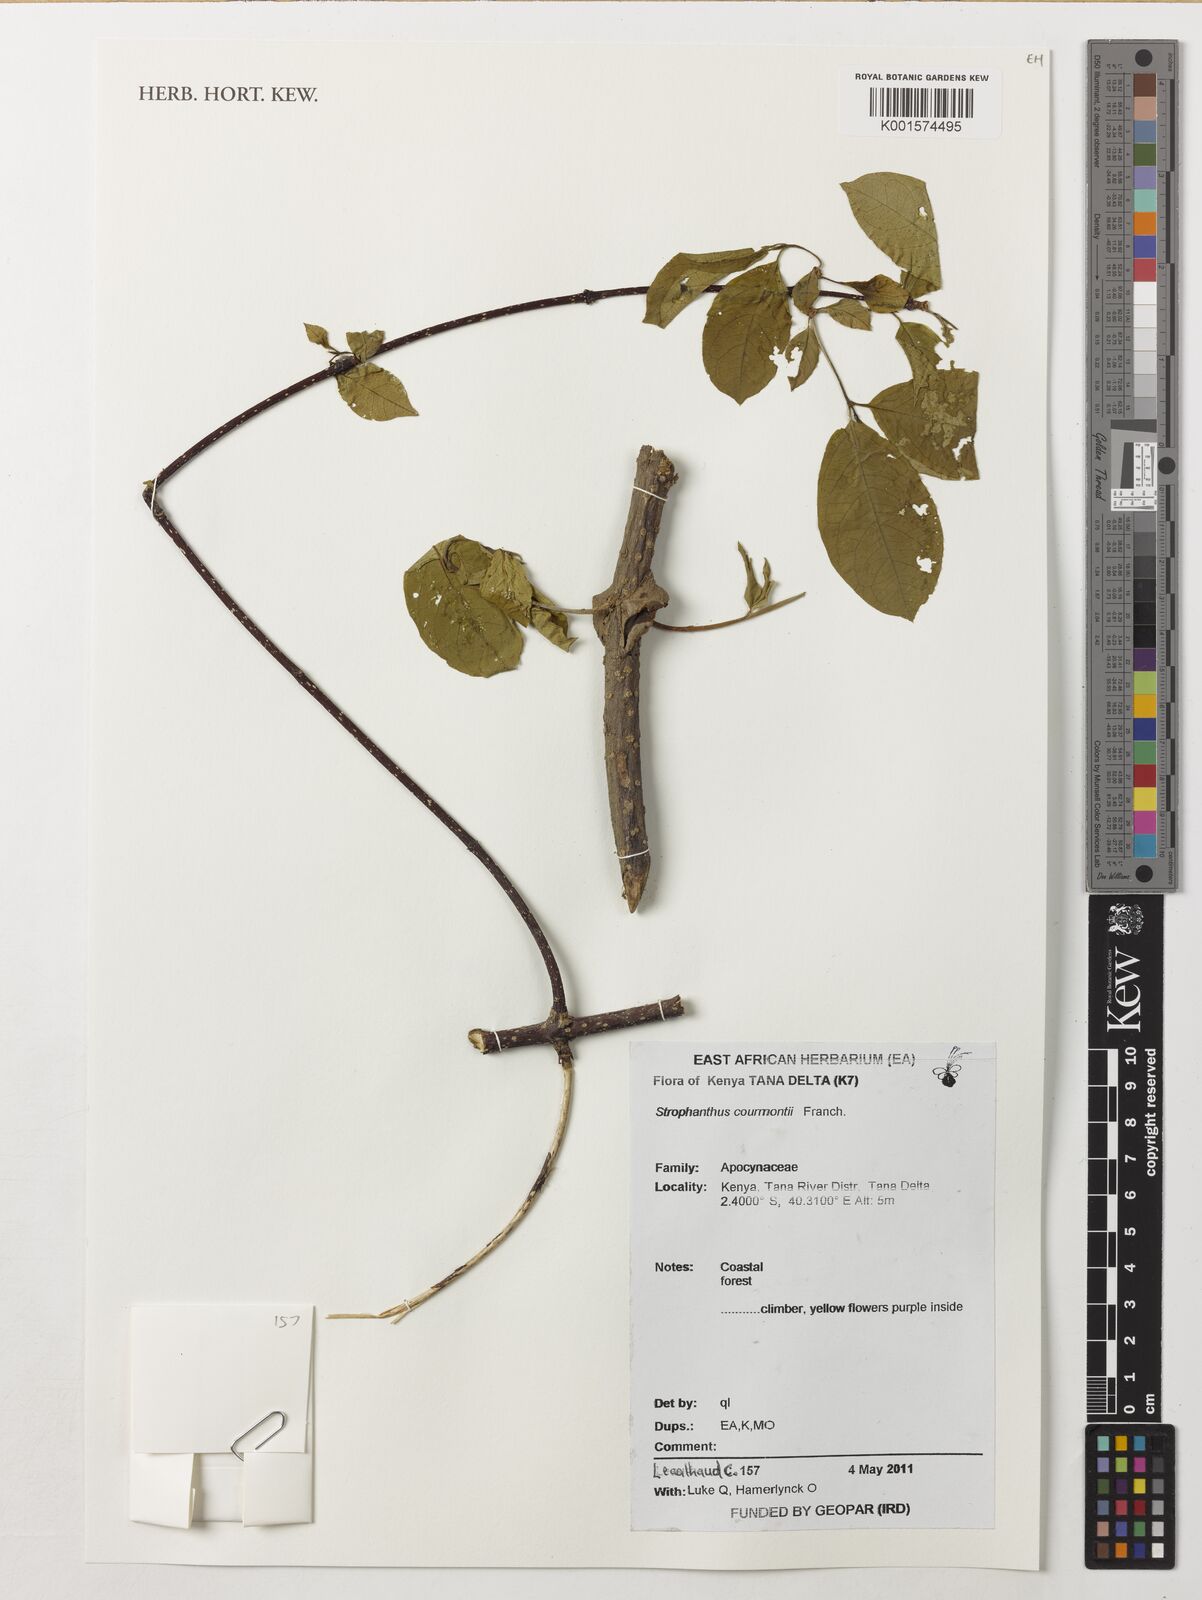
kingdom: Plantae
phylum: Tracheophyta
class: Magnoliopsida
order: Gentianales
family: Apocynaceae
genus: Strophanthus
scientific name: Strophanthus courmontii
